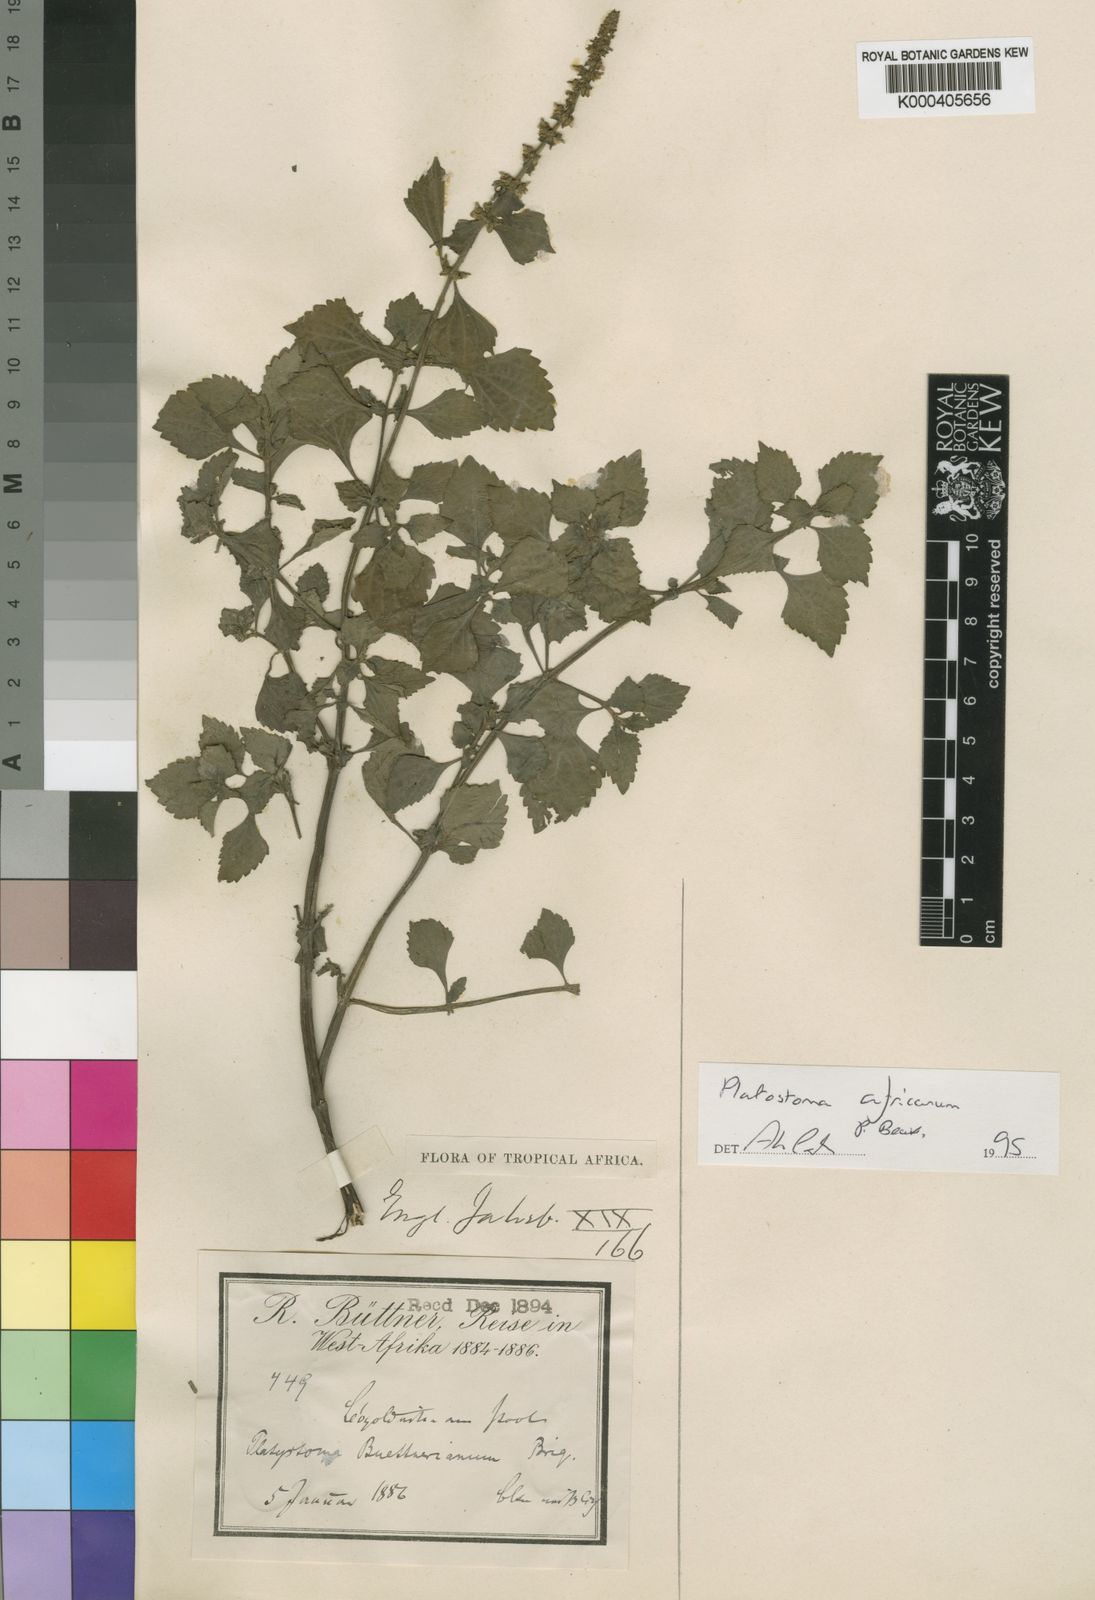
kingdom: Plantae
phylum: Tracheophyta
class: Magnoliopsida
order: Lamiales
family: Lamiaceae
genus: Platostoma
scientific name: Platostoma africanum
